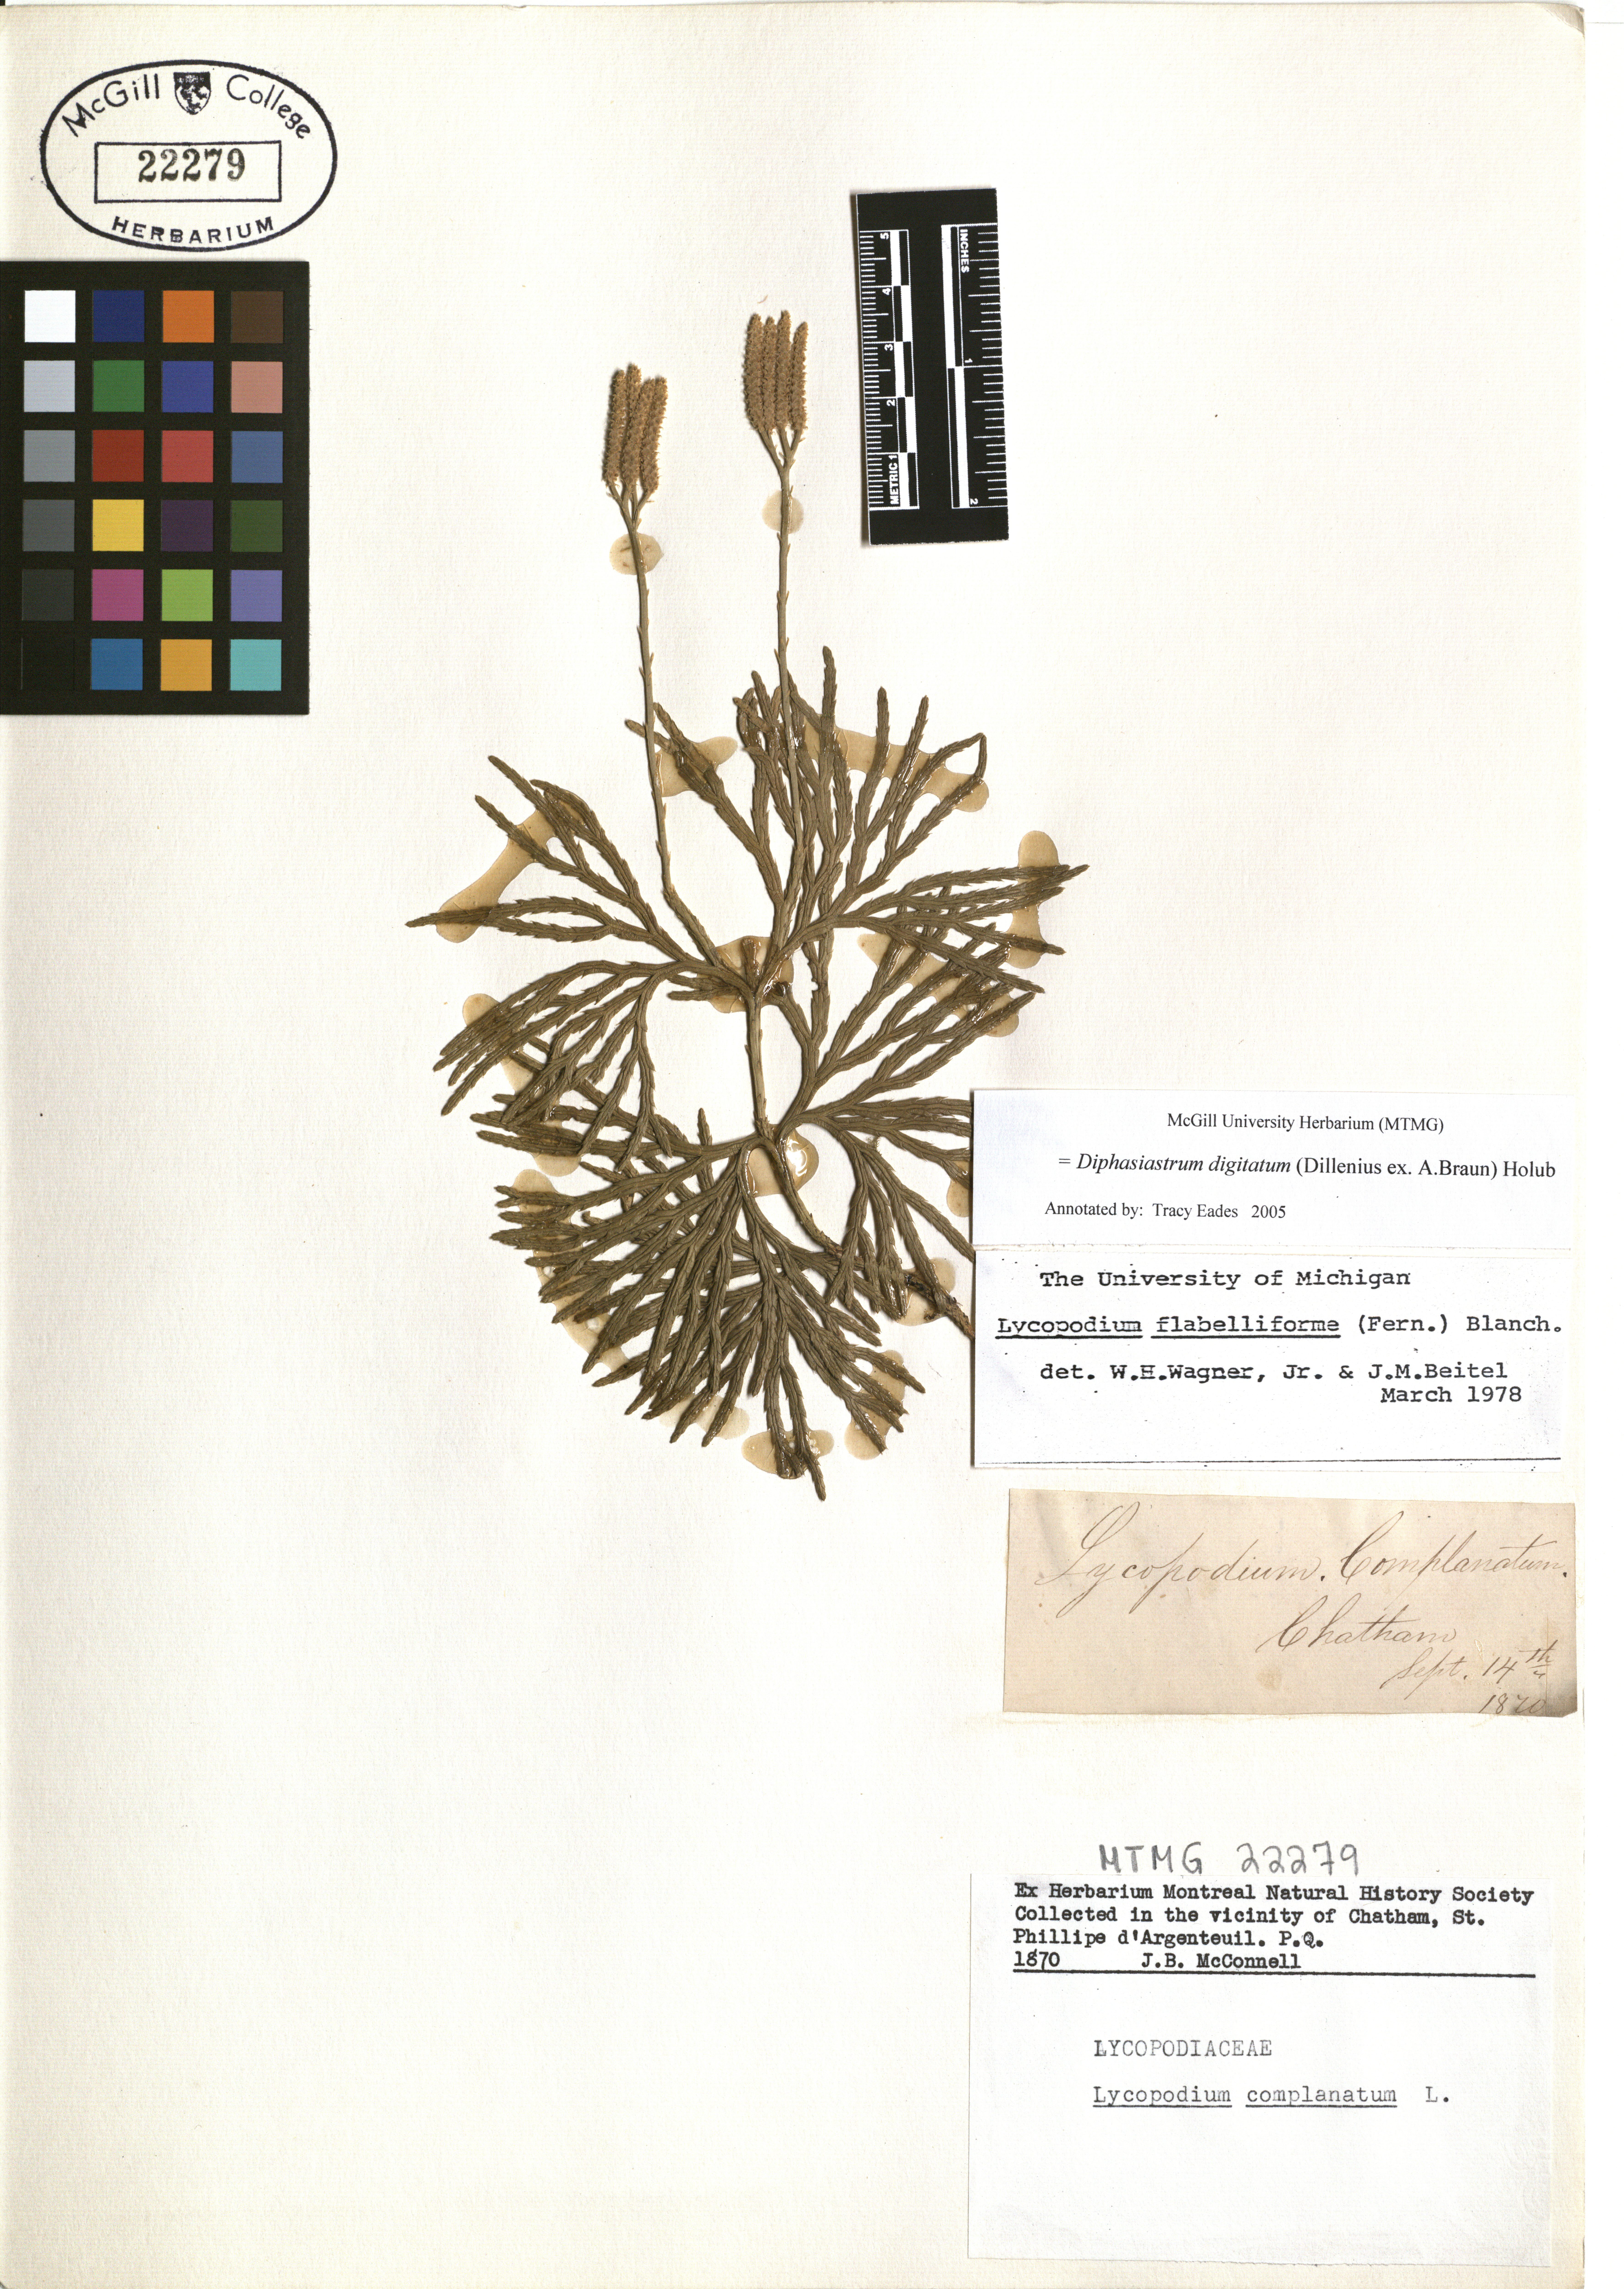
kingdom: Plantae
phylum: Tracheophyta
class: Lycopodiopsida
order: Lycopodiales
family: Lycopodiaceae
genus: Diphasiastrum
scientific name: Diphasiastrum digitatum
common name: Southern running-pine
